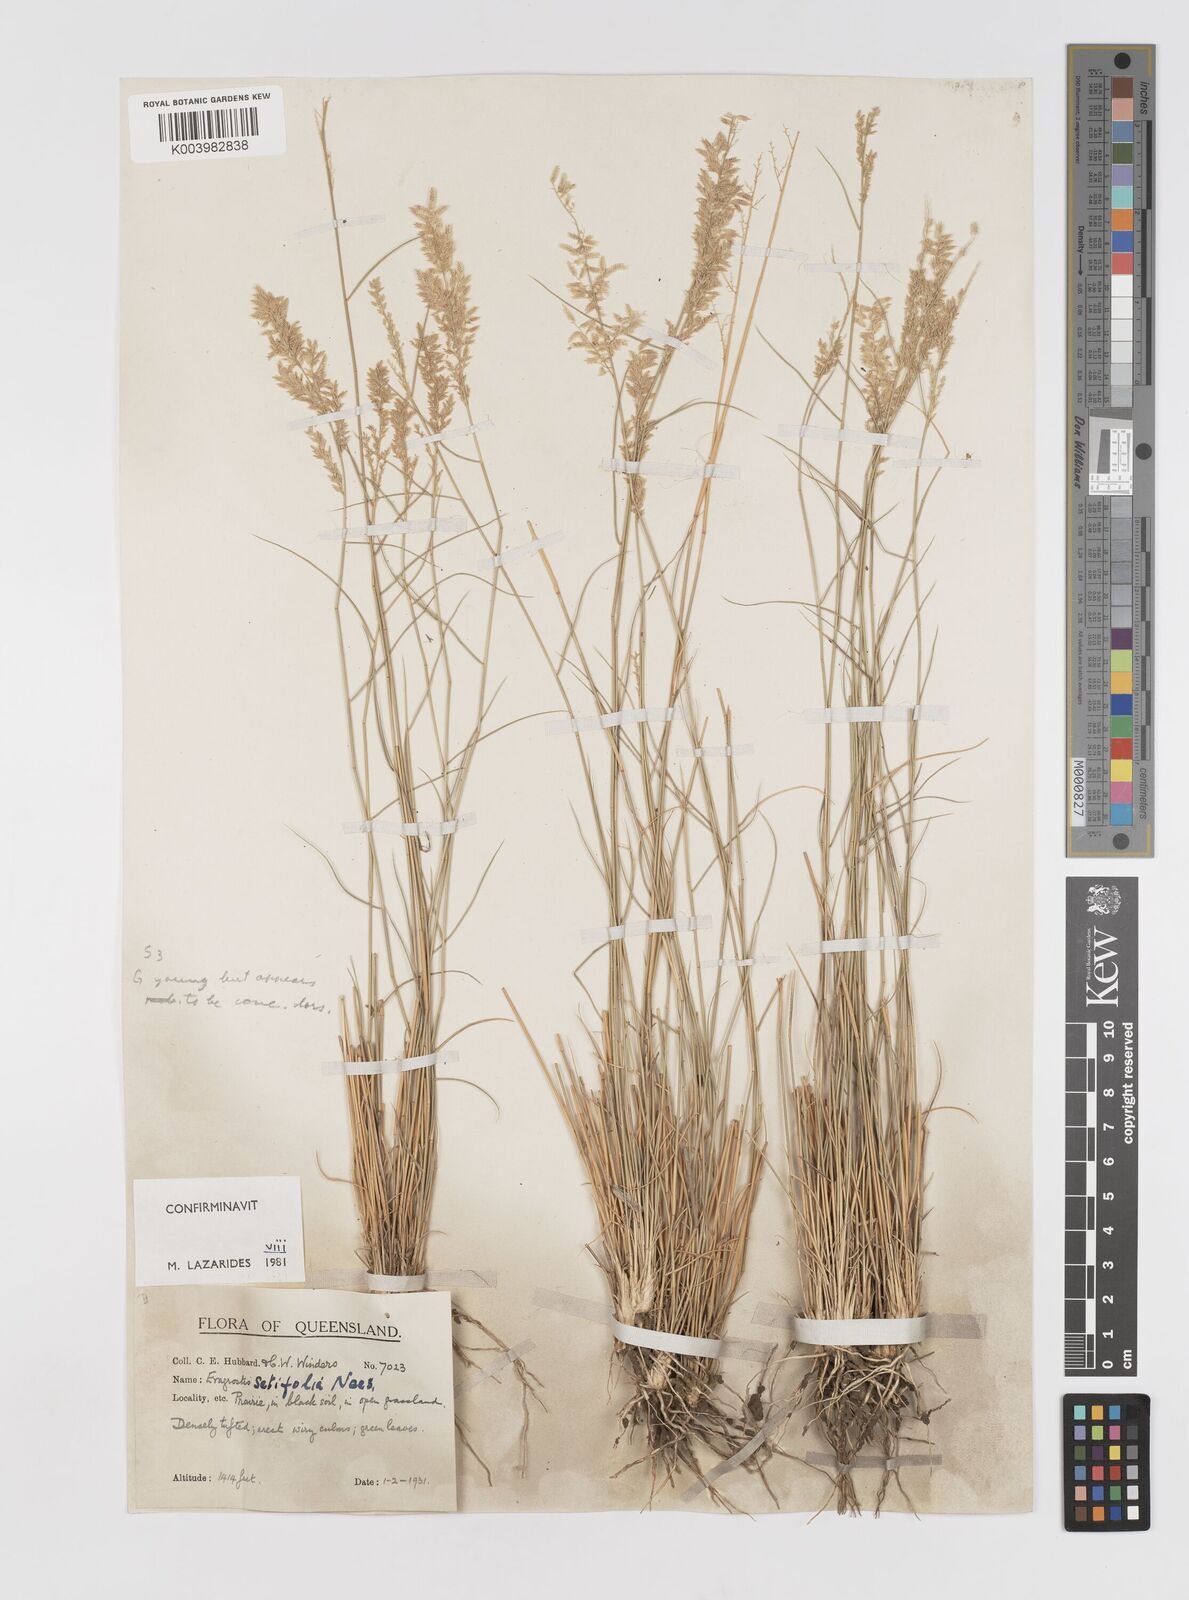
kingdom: Plantae
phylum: Tracheophyta
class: Liliopsida
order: Poales
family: Poaceae
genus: Eragrostis
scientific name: Eragrostis setifolia
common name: Bristleleaf lovegrass
